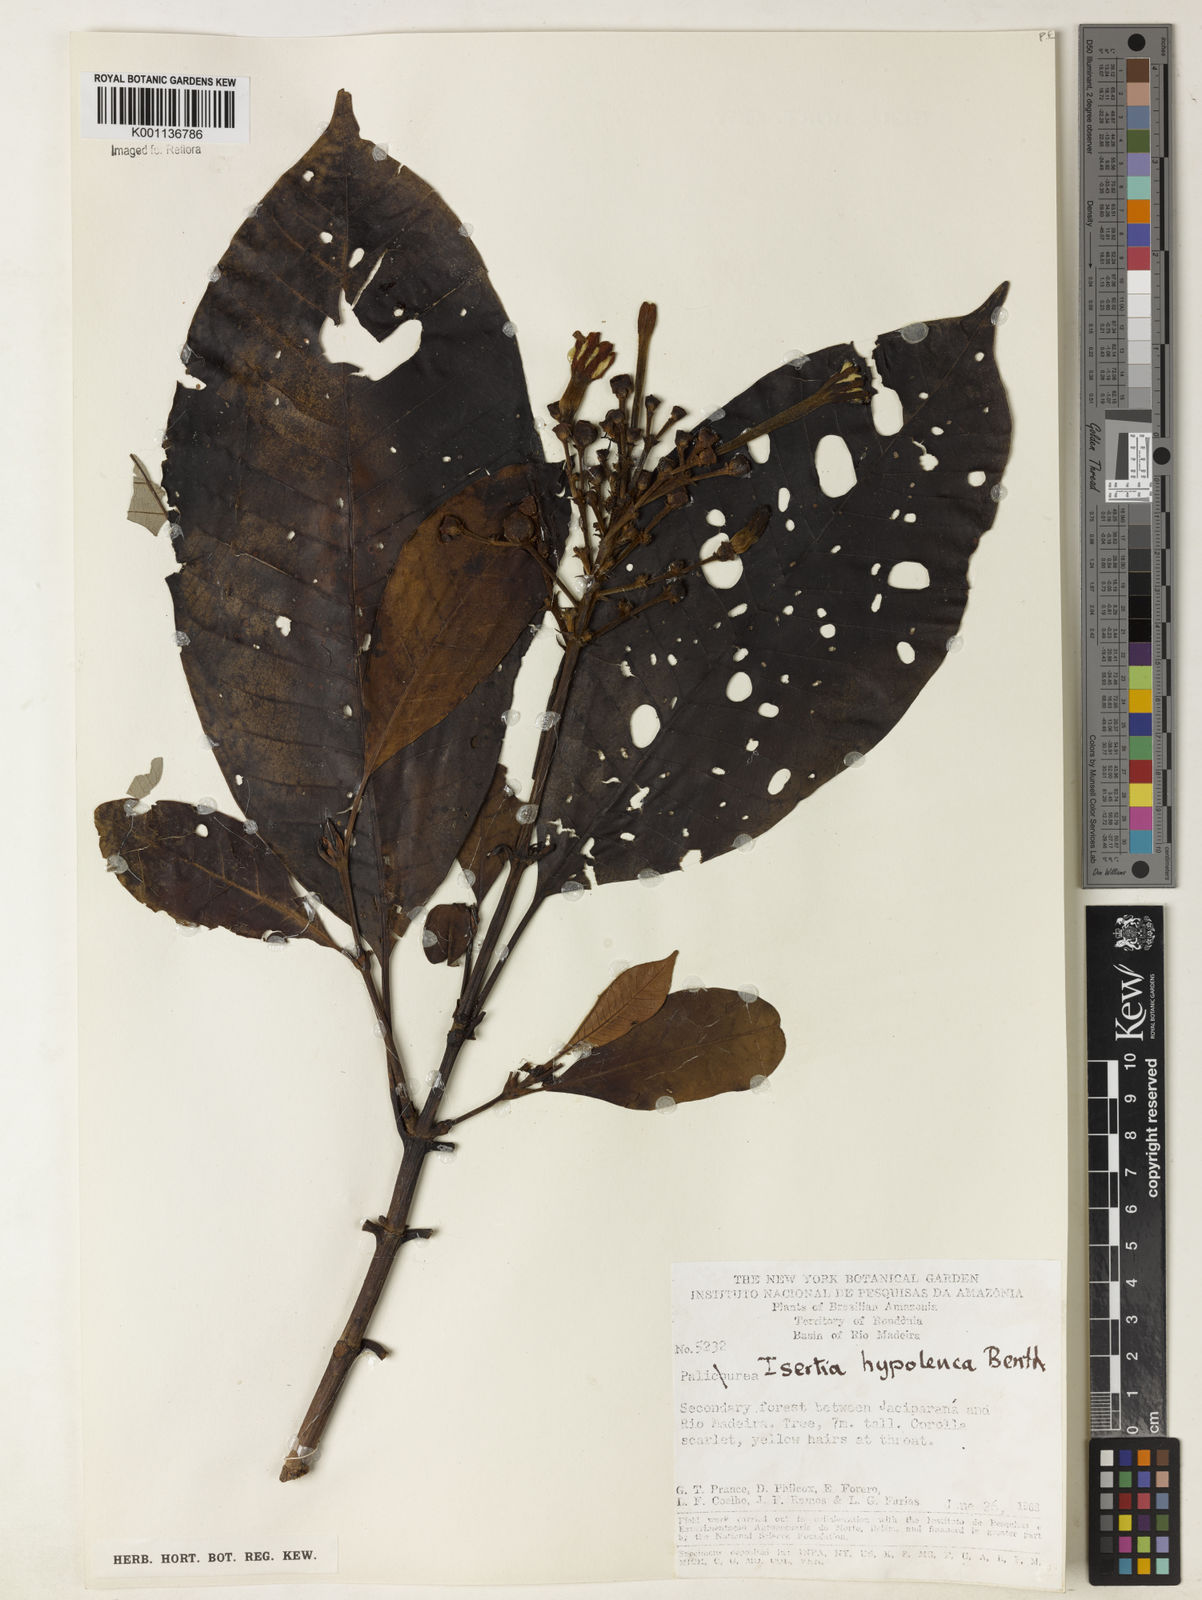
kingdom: Plantae
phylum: Tracheophyta
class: Magnoliopsida
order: Gentianales
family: Rubiaceae
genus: Isertia
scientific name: Isertia hypoleuca
